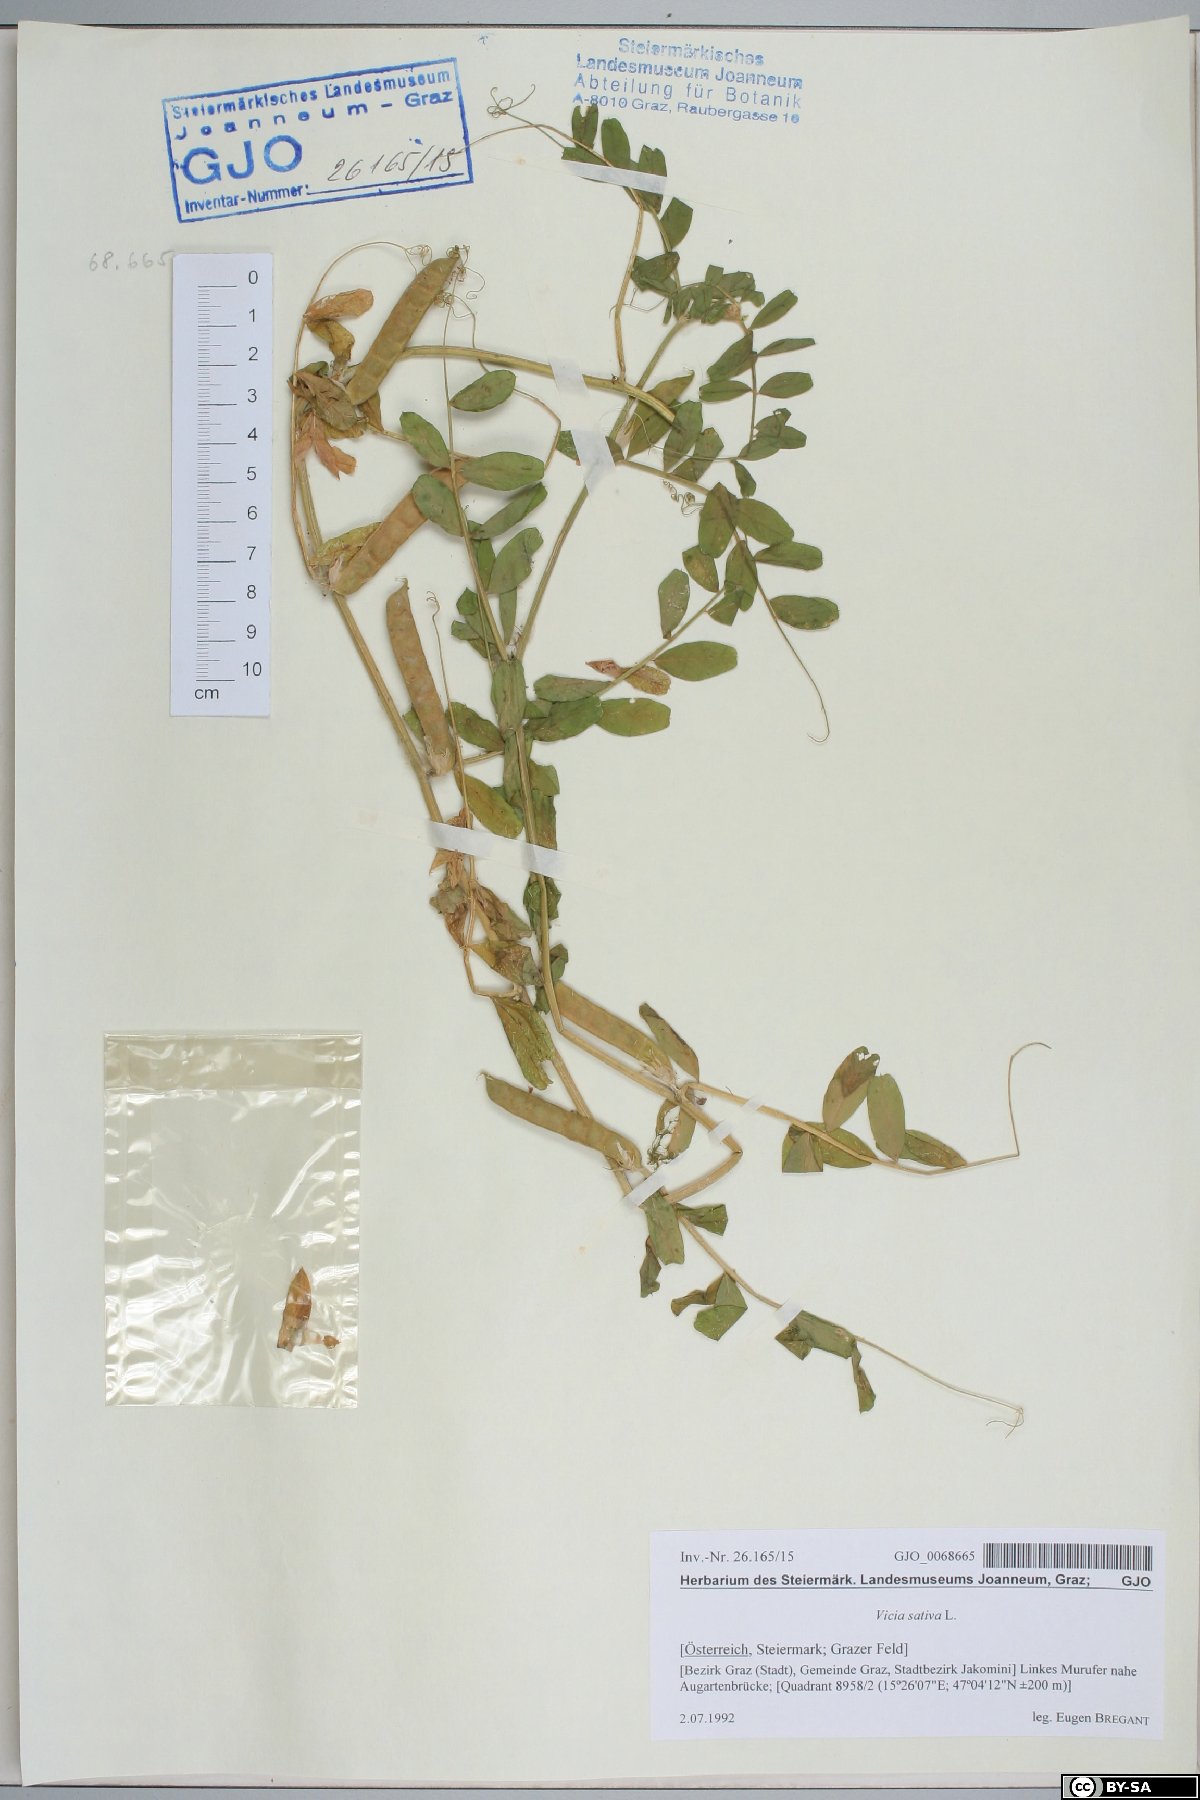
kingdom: Plantae
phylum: Tracheophyta
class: Magnoliopsida
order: Fabales
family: Fabaceae
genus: Vicia
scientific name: Vicia sativa
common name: Garden vetch
